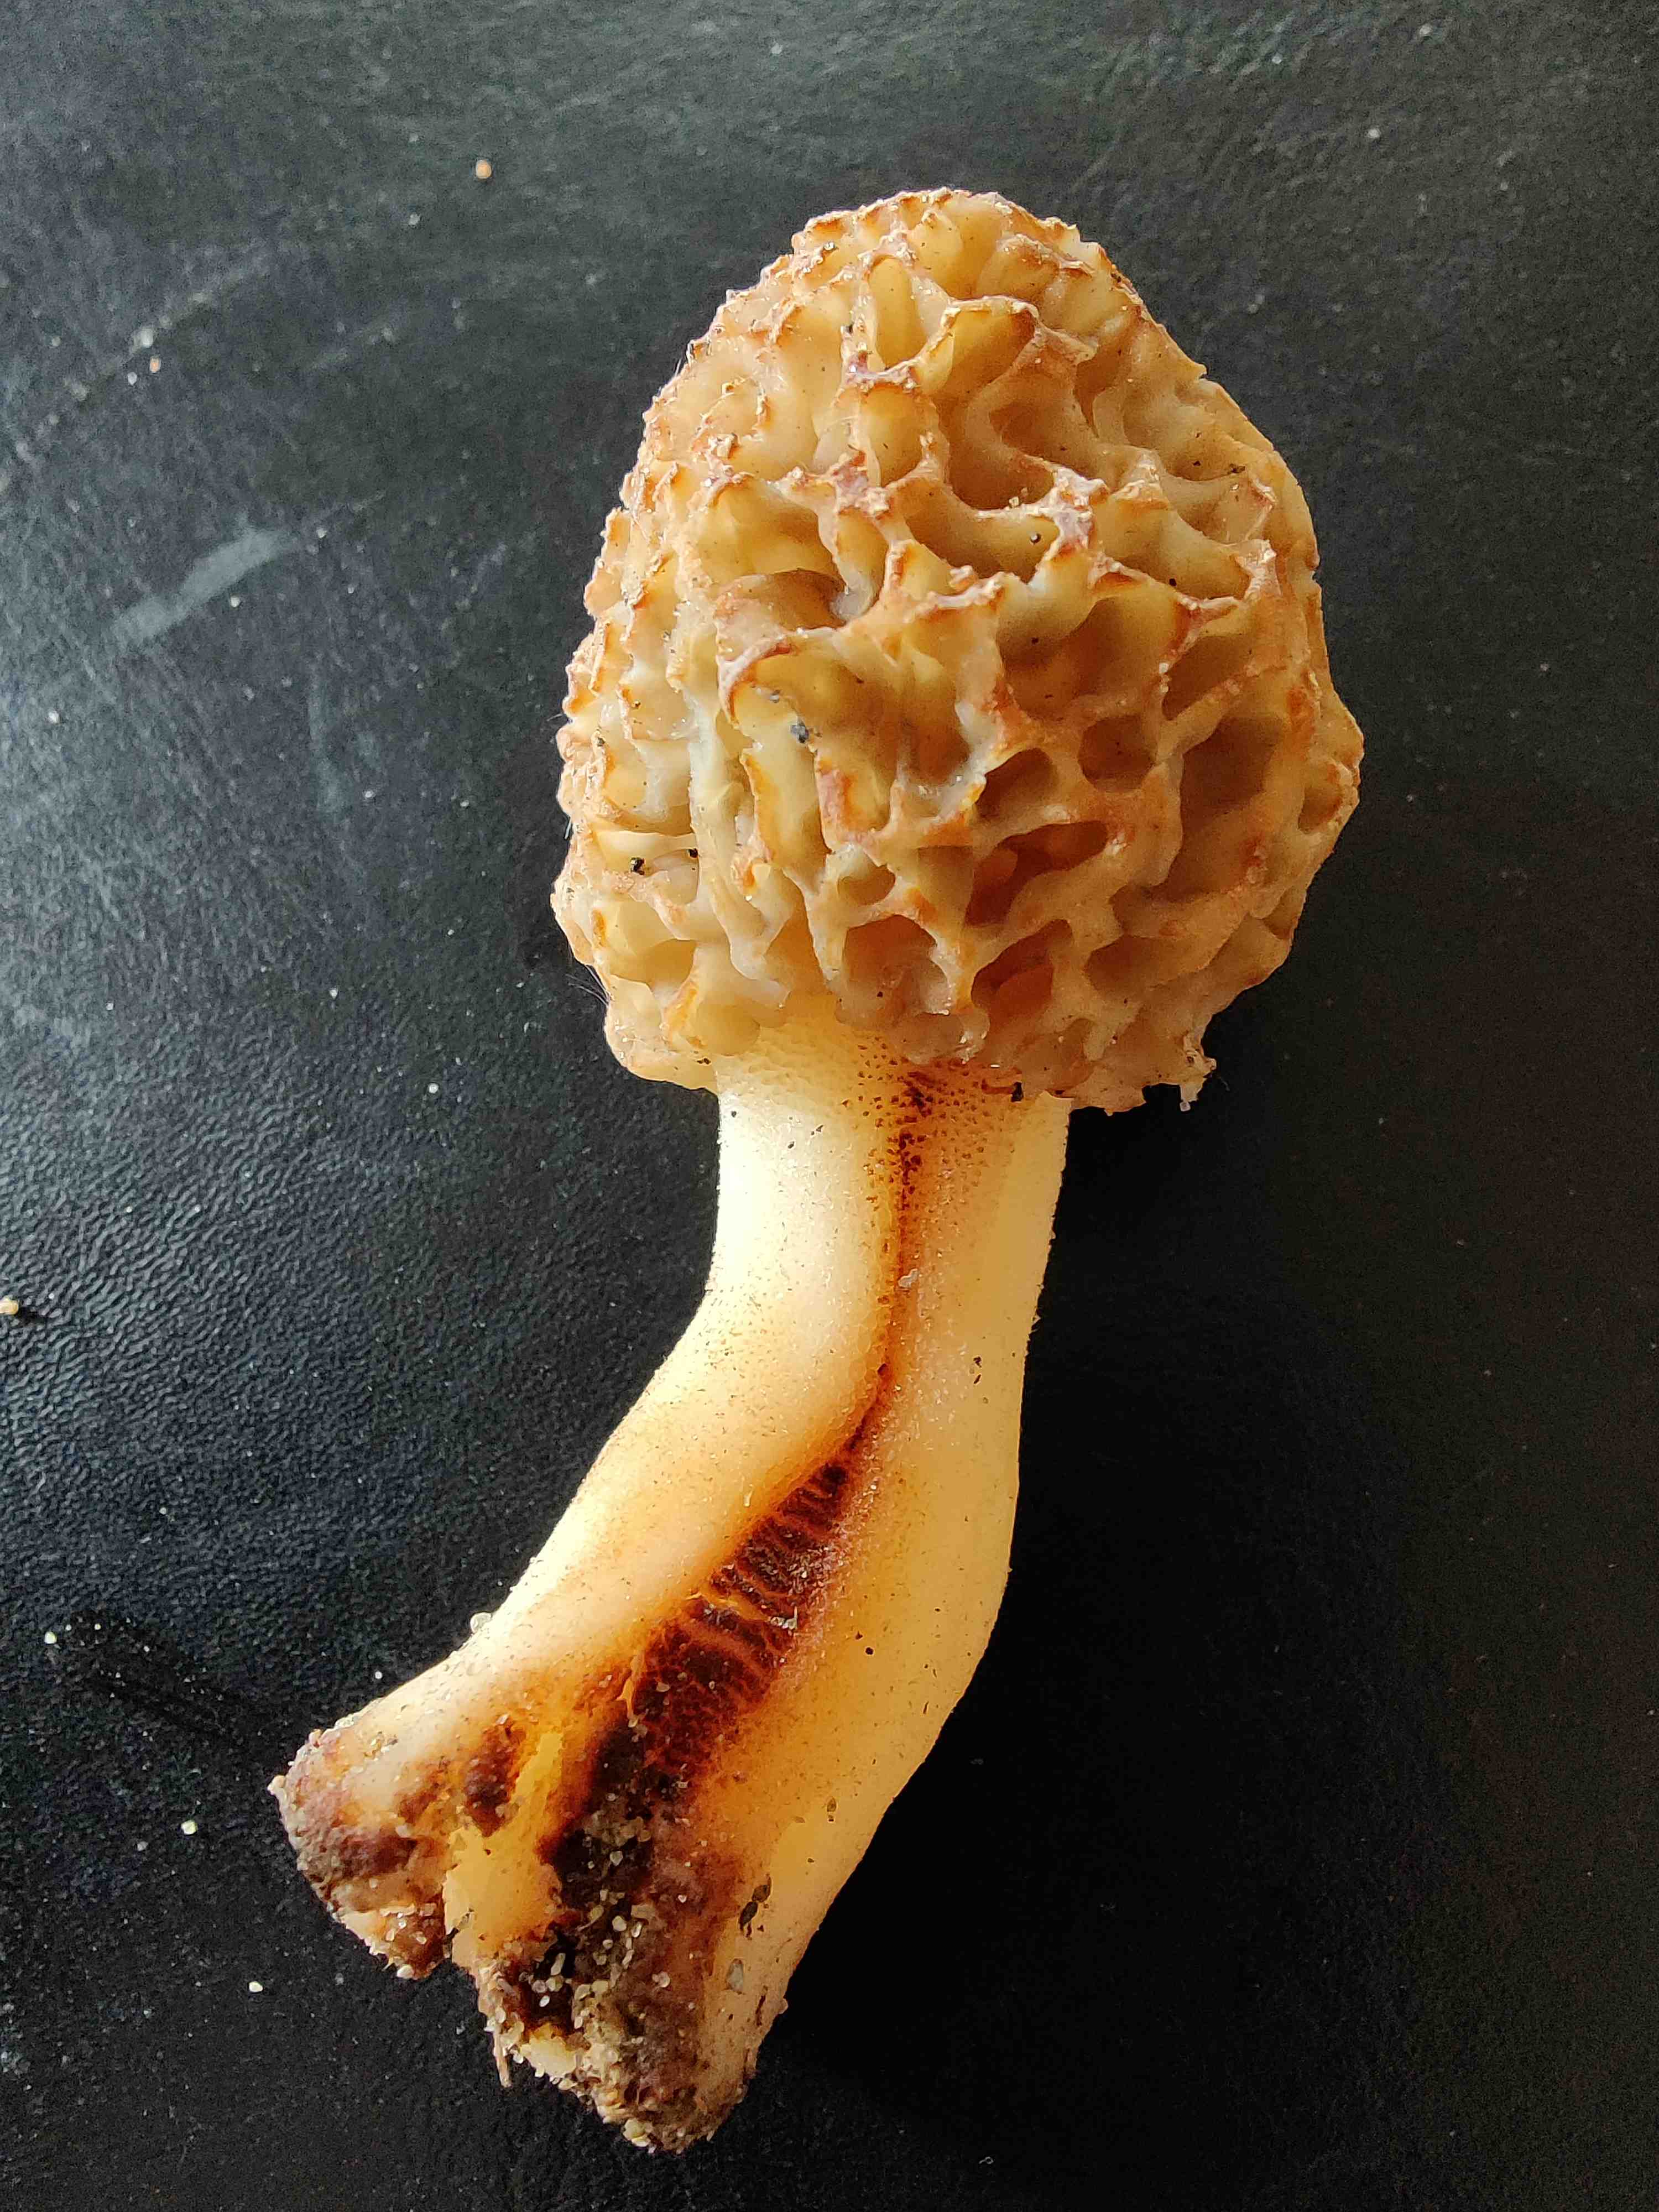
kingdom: Fungi
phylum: Ascomycota
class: Pezizomycetes
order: Pezizales
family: Morchellaceae
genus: Morchella
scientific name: Morchella esculenta
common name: spiselig morkel
